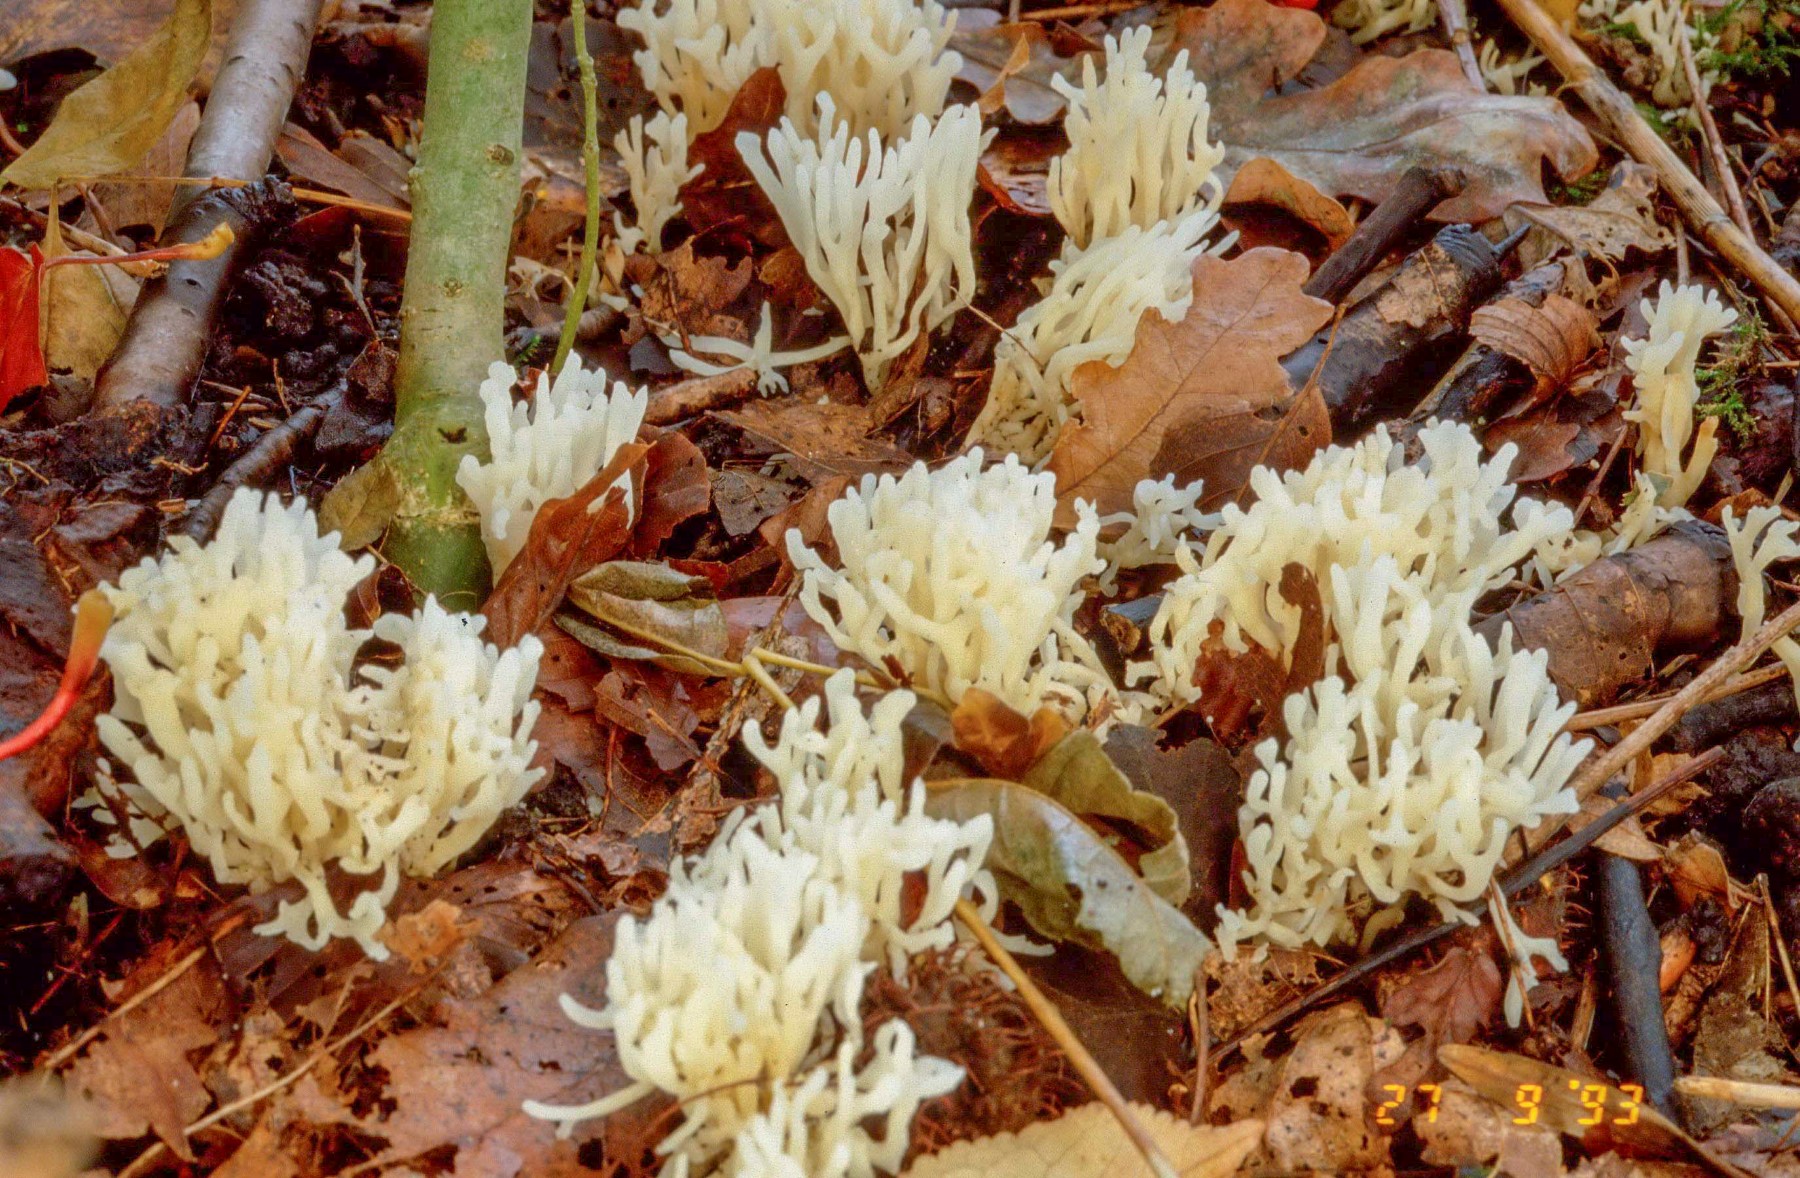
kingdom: Fungi
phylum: Basidiomycota
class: Agaricomycetes
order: Agaricales
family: Clavariaceae
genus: Ramariopsis
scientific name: Ramariopsis kunzei
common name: mangegrenet køllesvamp
